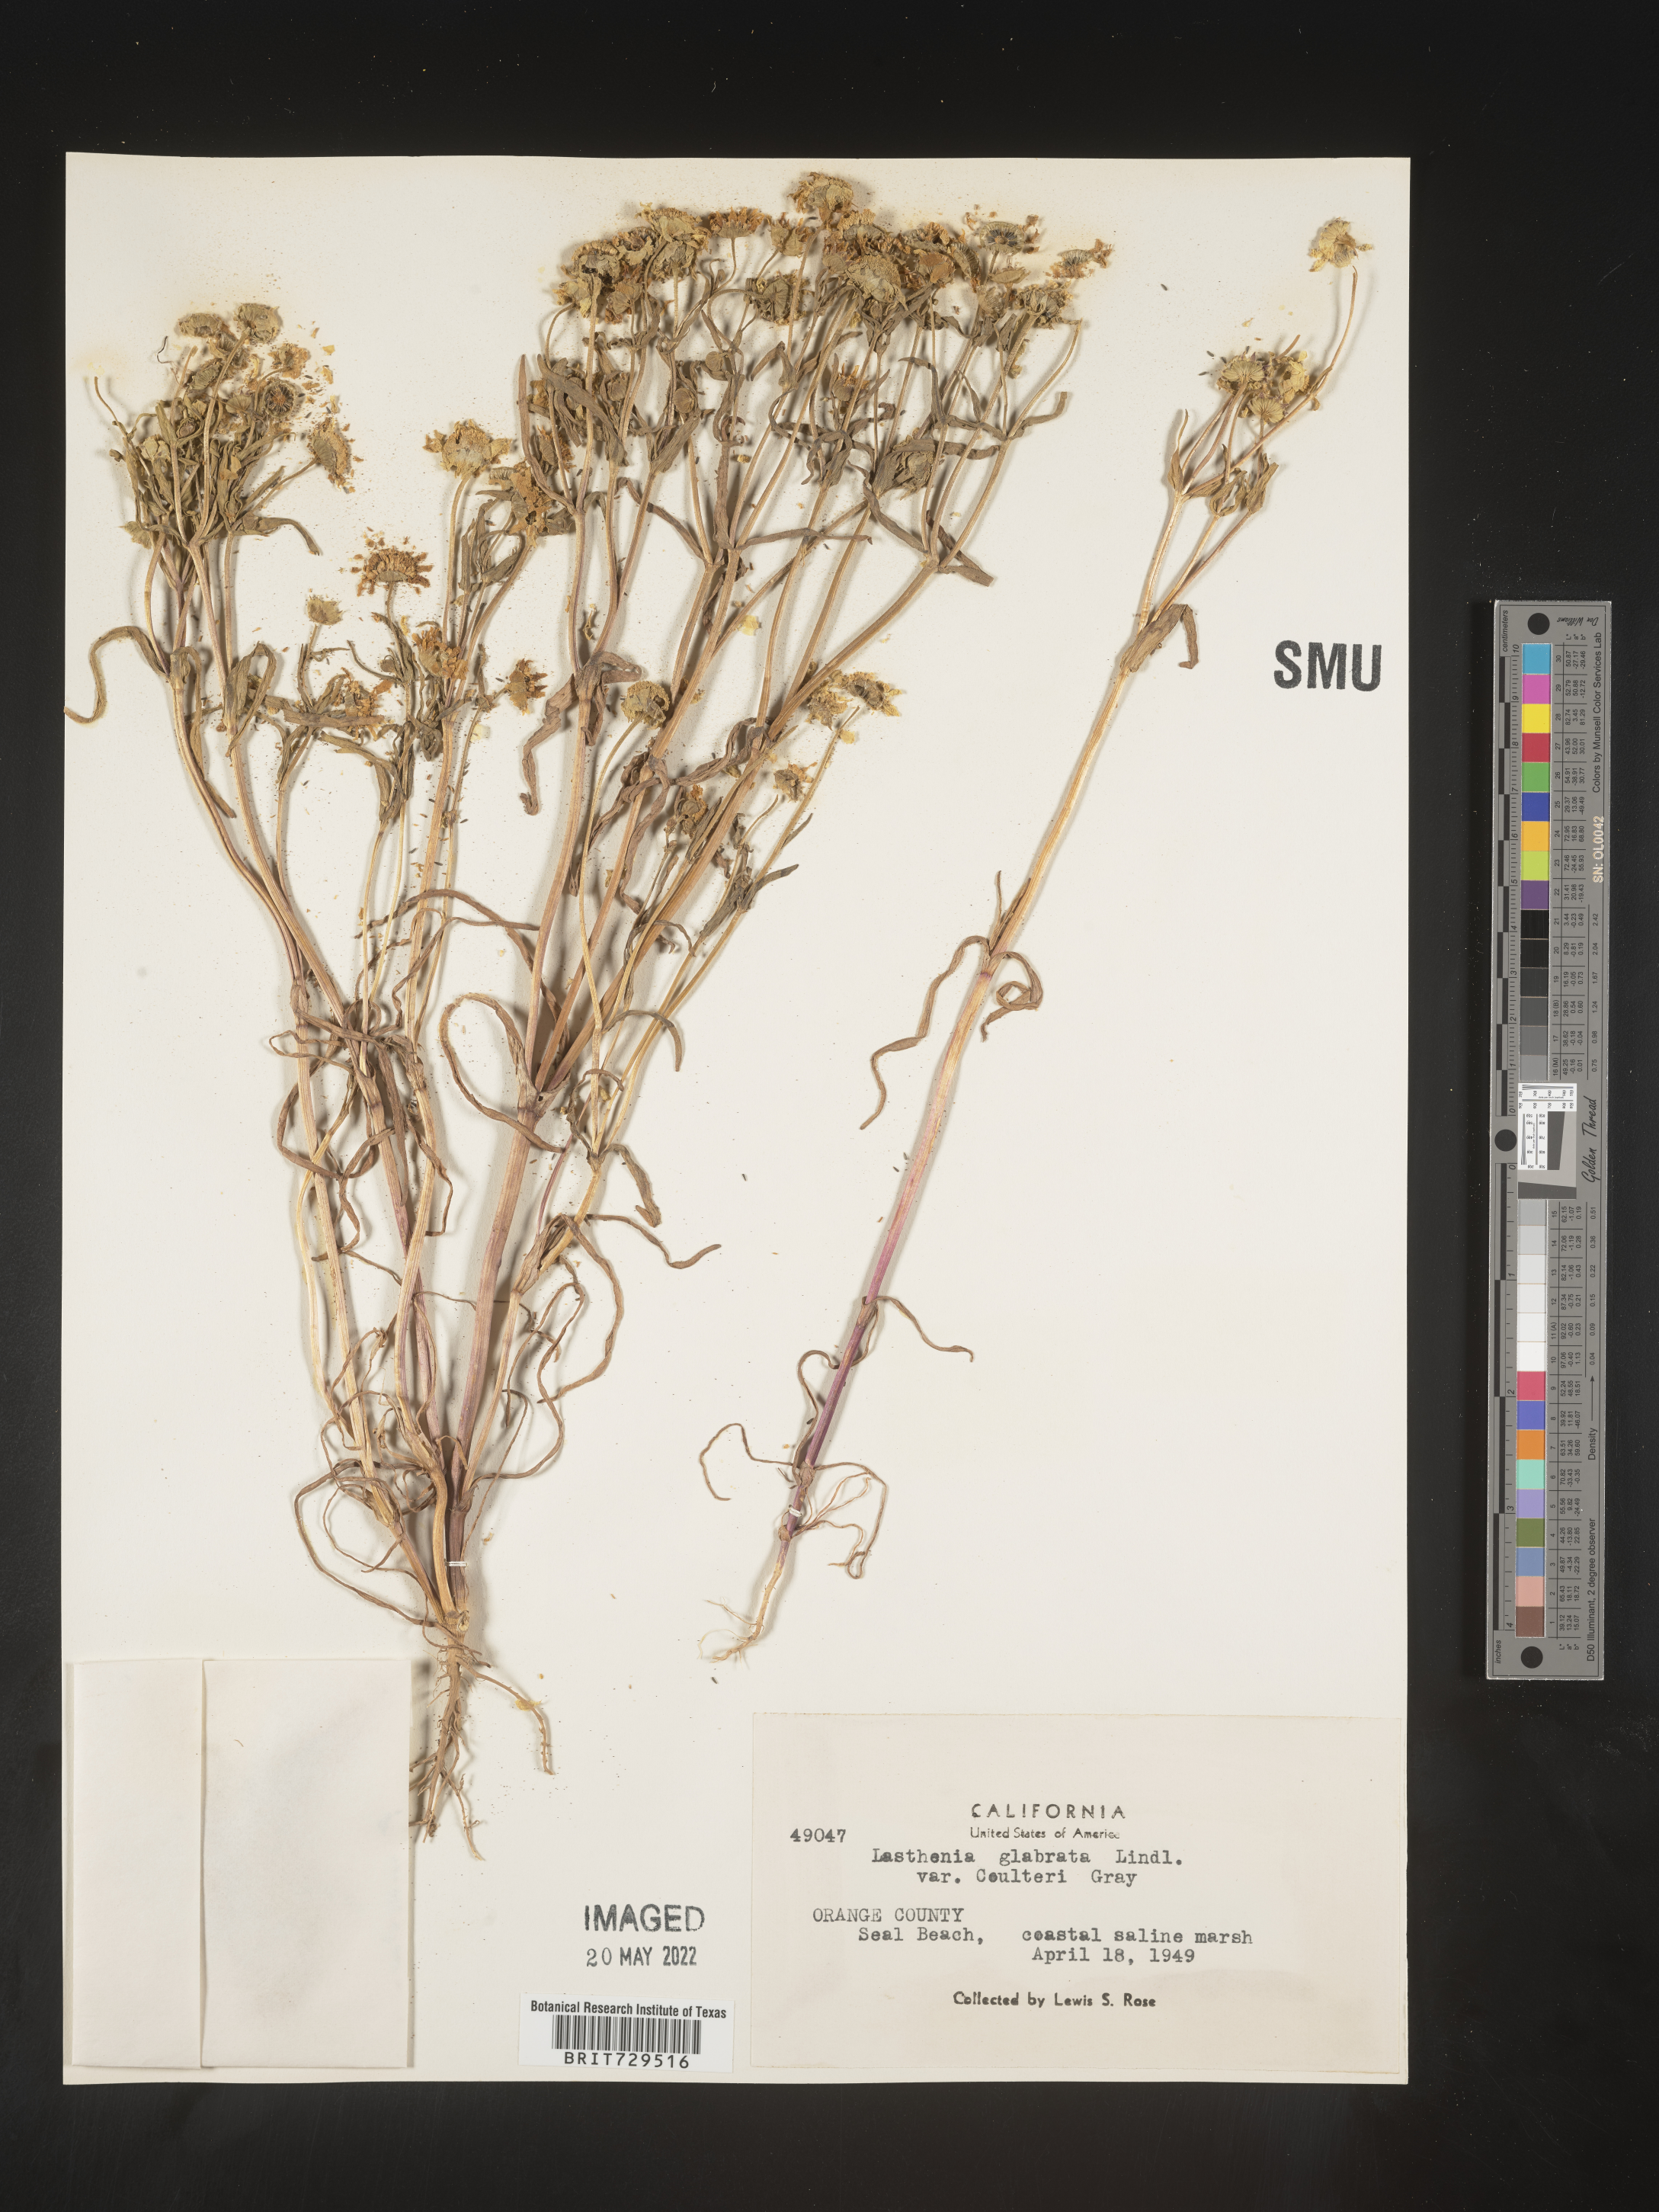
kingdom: Plantae
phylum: Tracheophyta
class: Magnoliopsida
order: Asterales
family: Asteraceae
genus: Lasthenia
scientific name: Lasthenia
